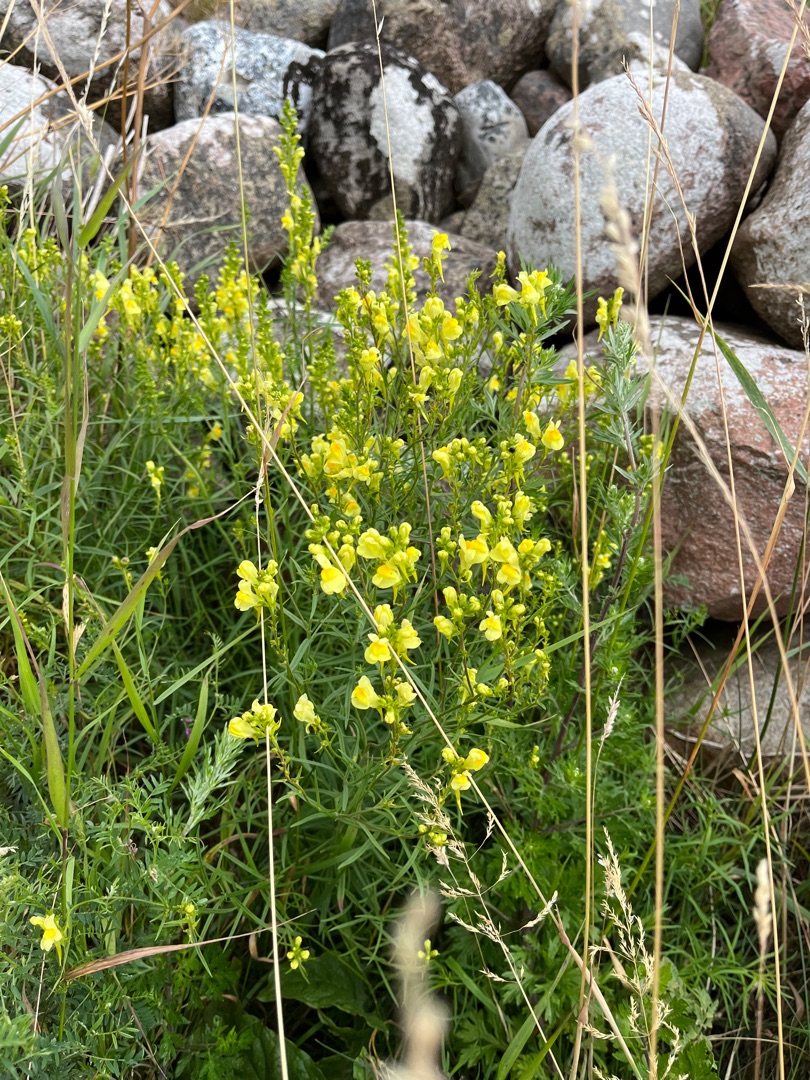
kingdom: Plantae
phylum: Tracheophyta
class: Magnoliopsida
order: Lamiales
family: Plantaginaceae
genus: Linaria
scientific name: Linaria vulgaris
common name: Almindelig torskemund
